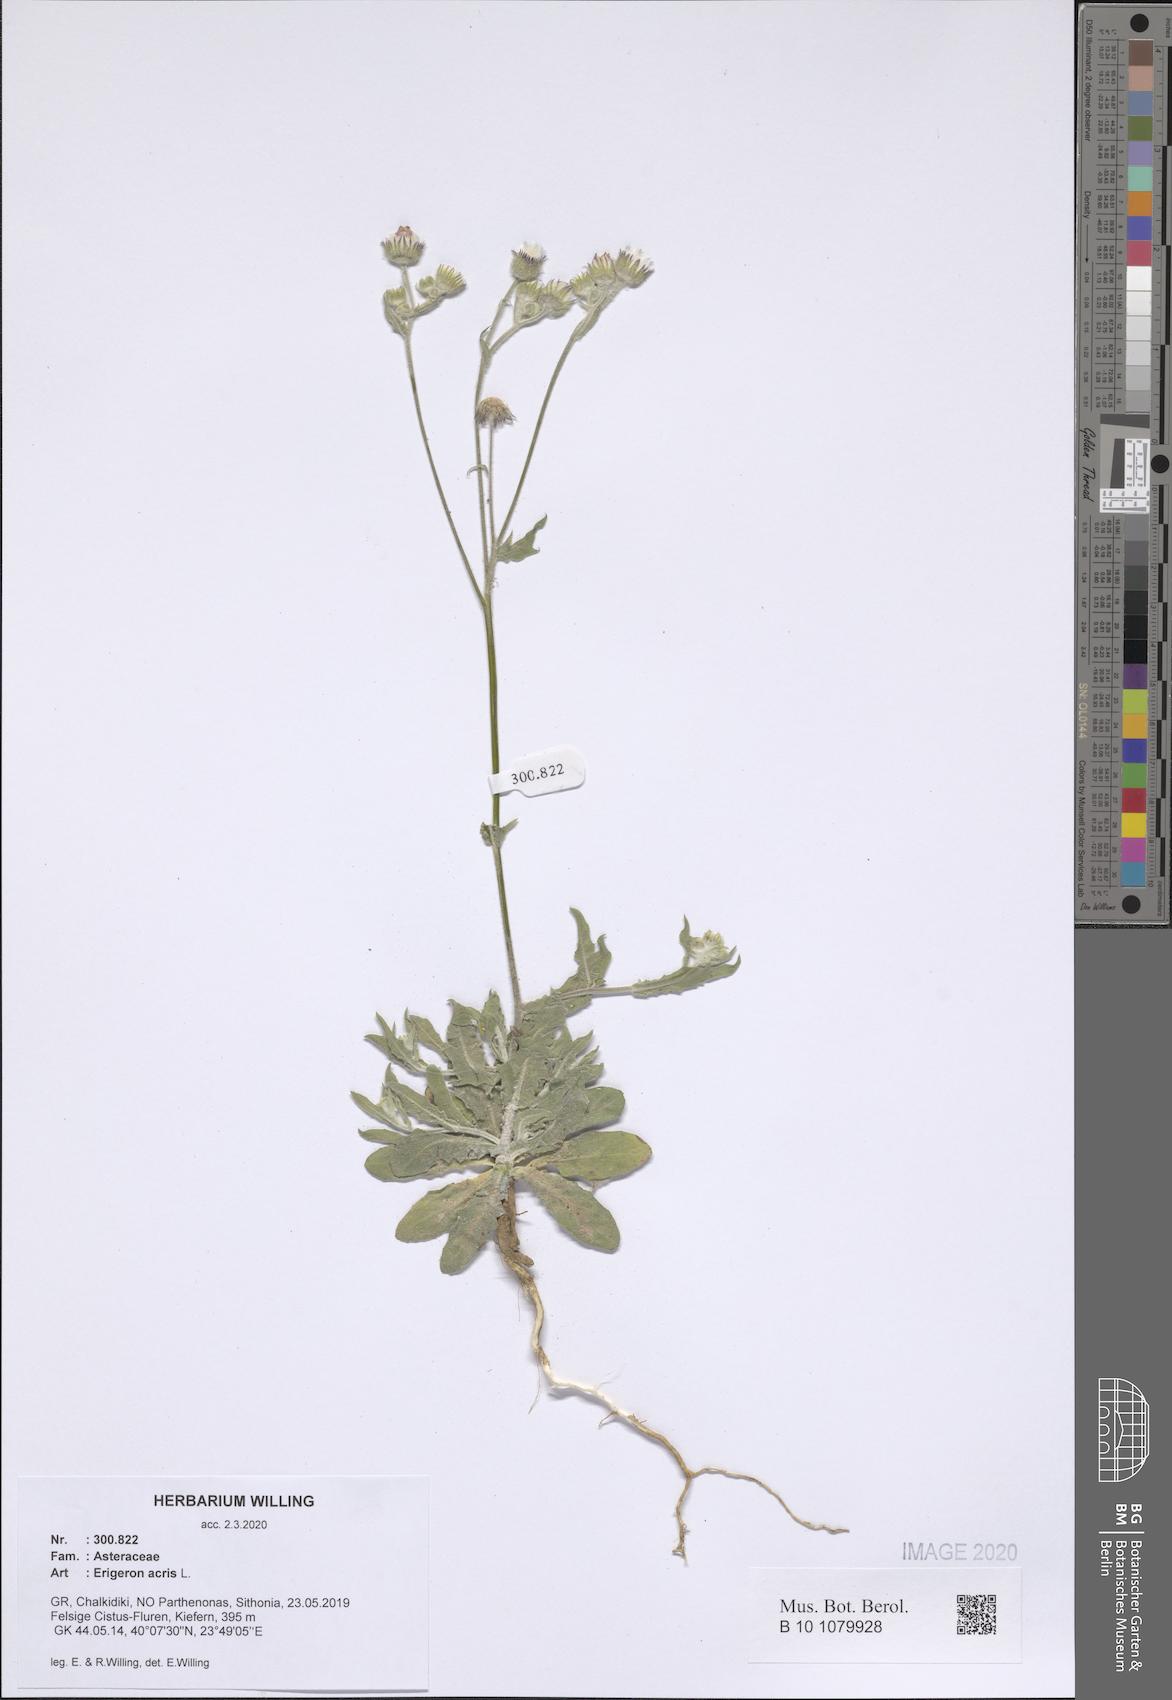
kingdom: Plantae
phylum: Tracheophyta
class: Magnoliopsida
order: Asterales
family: Asteraceae
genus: Erigeron
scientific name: Erigeron acris
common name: Blue fleabane
